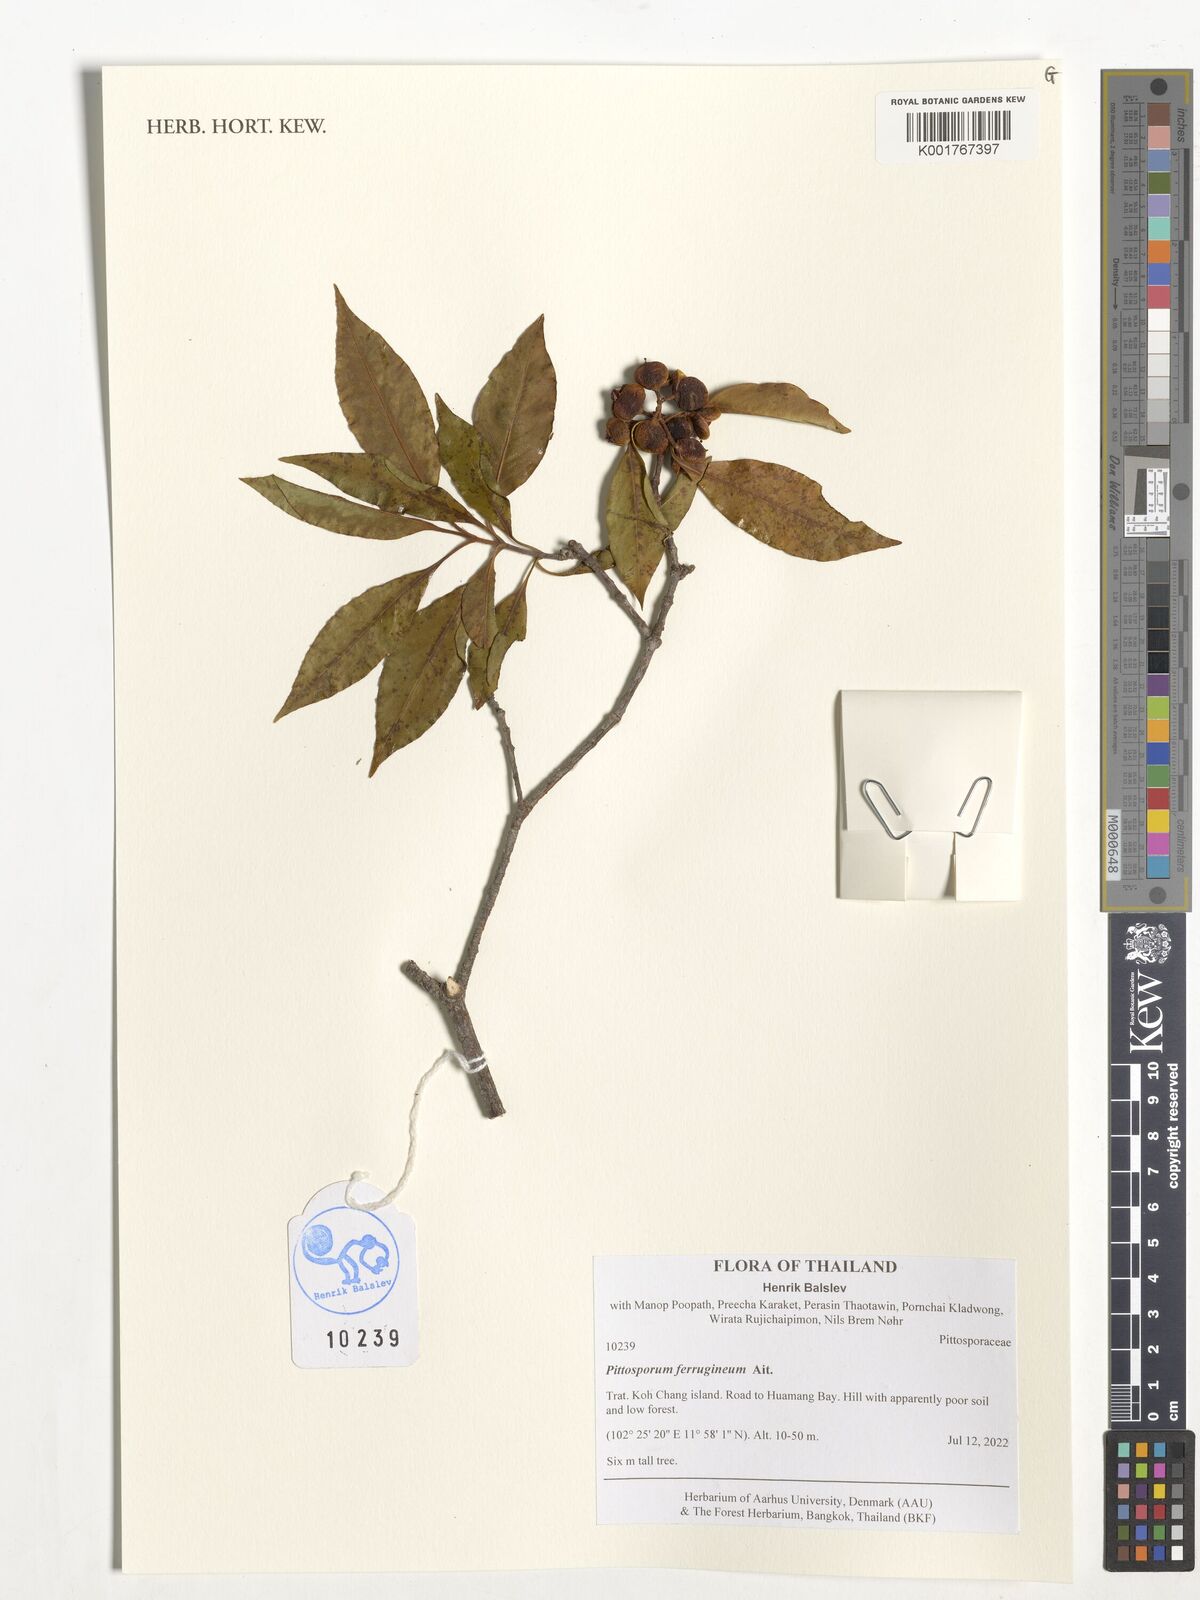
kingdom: Plantae
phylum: Tracheophyta
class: Magnoliopsida
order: Apiales
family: Pittosporaceae
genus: Pittosporum
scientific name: Pittosporum ferrugineum
